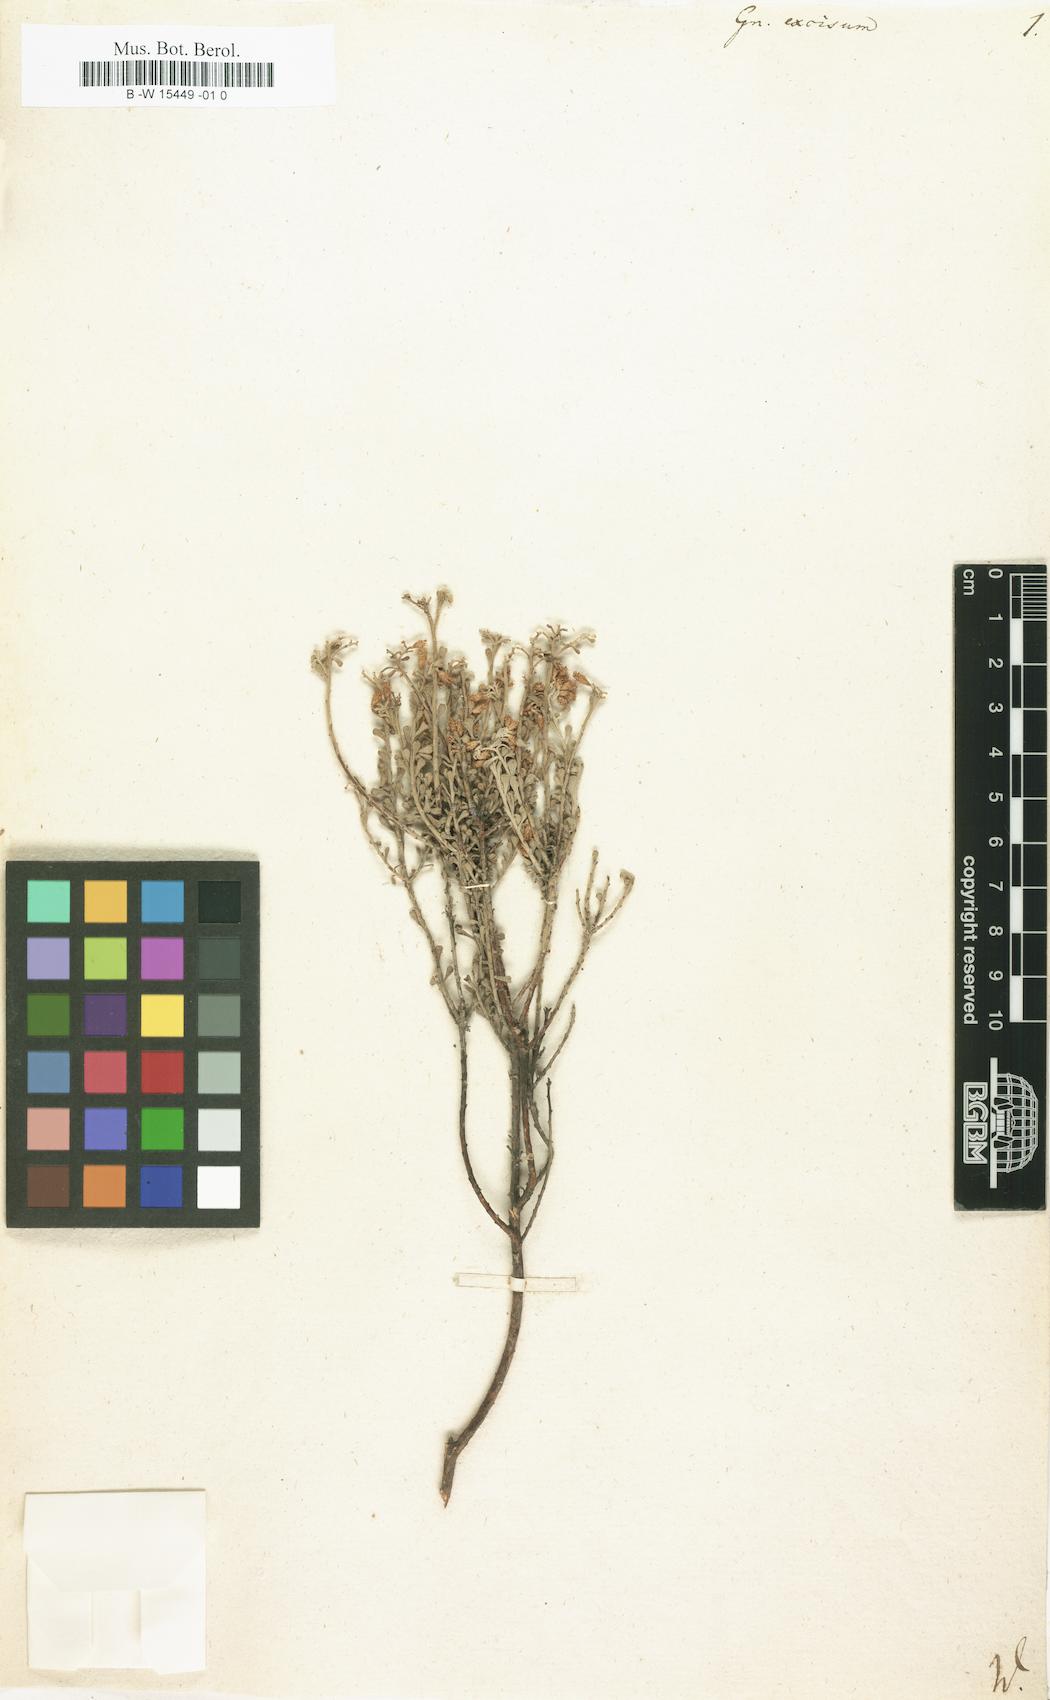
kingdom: Plantae
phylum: Tracheophyta
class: Magnoliopsida
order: Asterales
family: Asteraceae
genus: Helichrysum
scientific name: Helichrysum excisum
